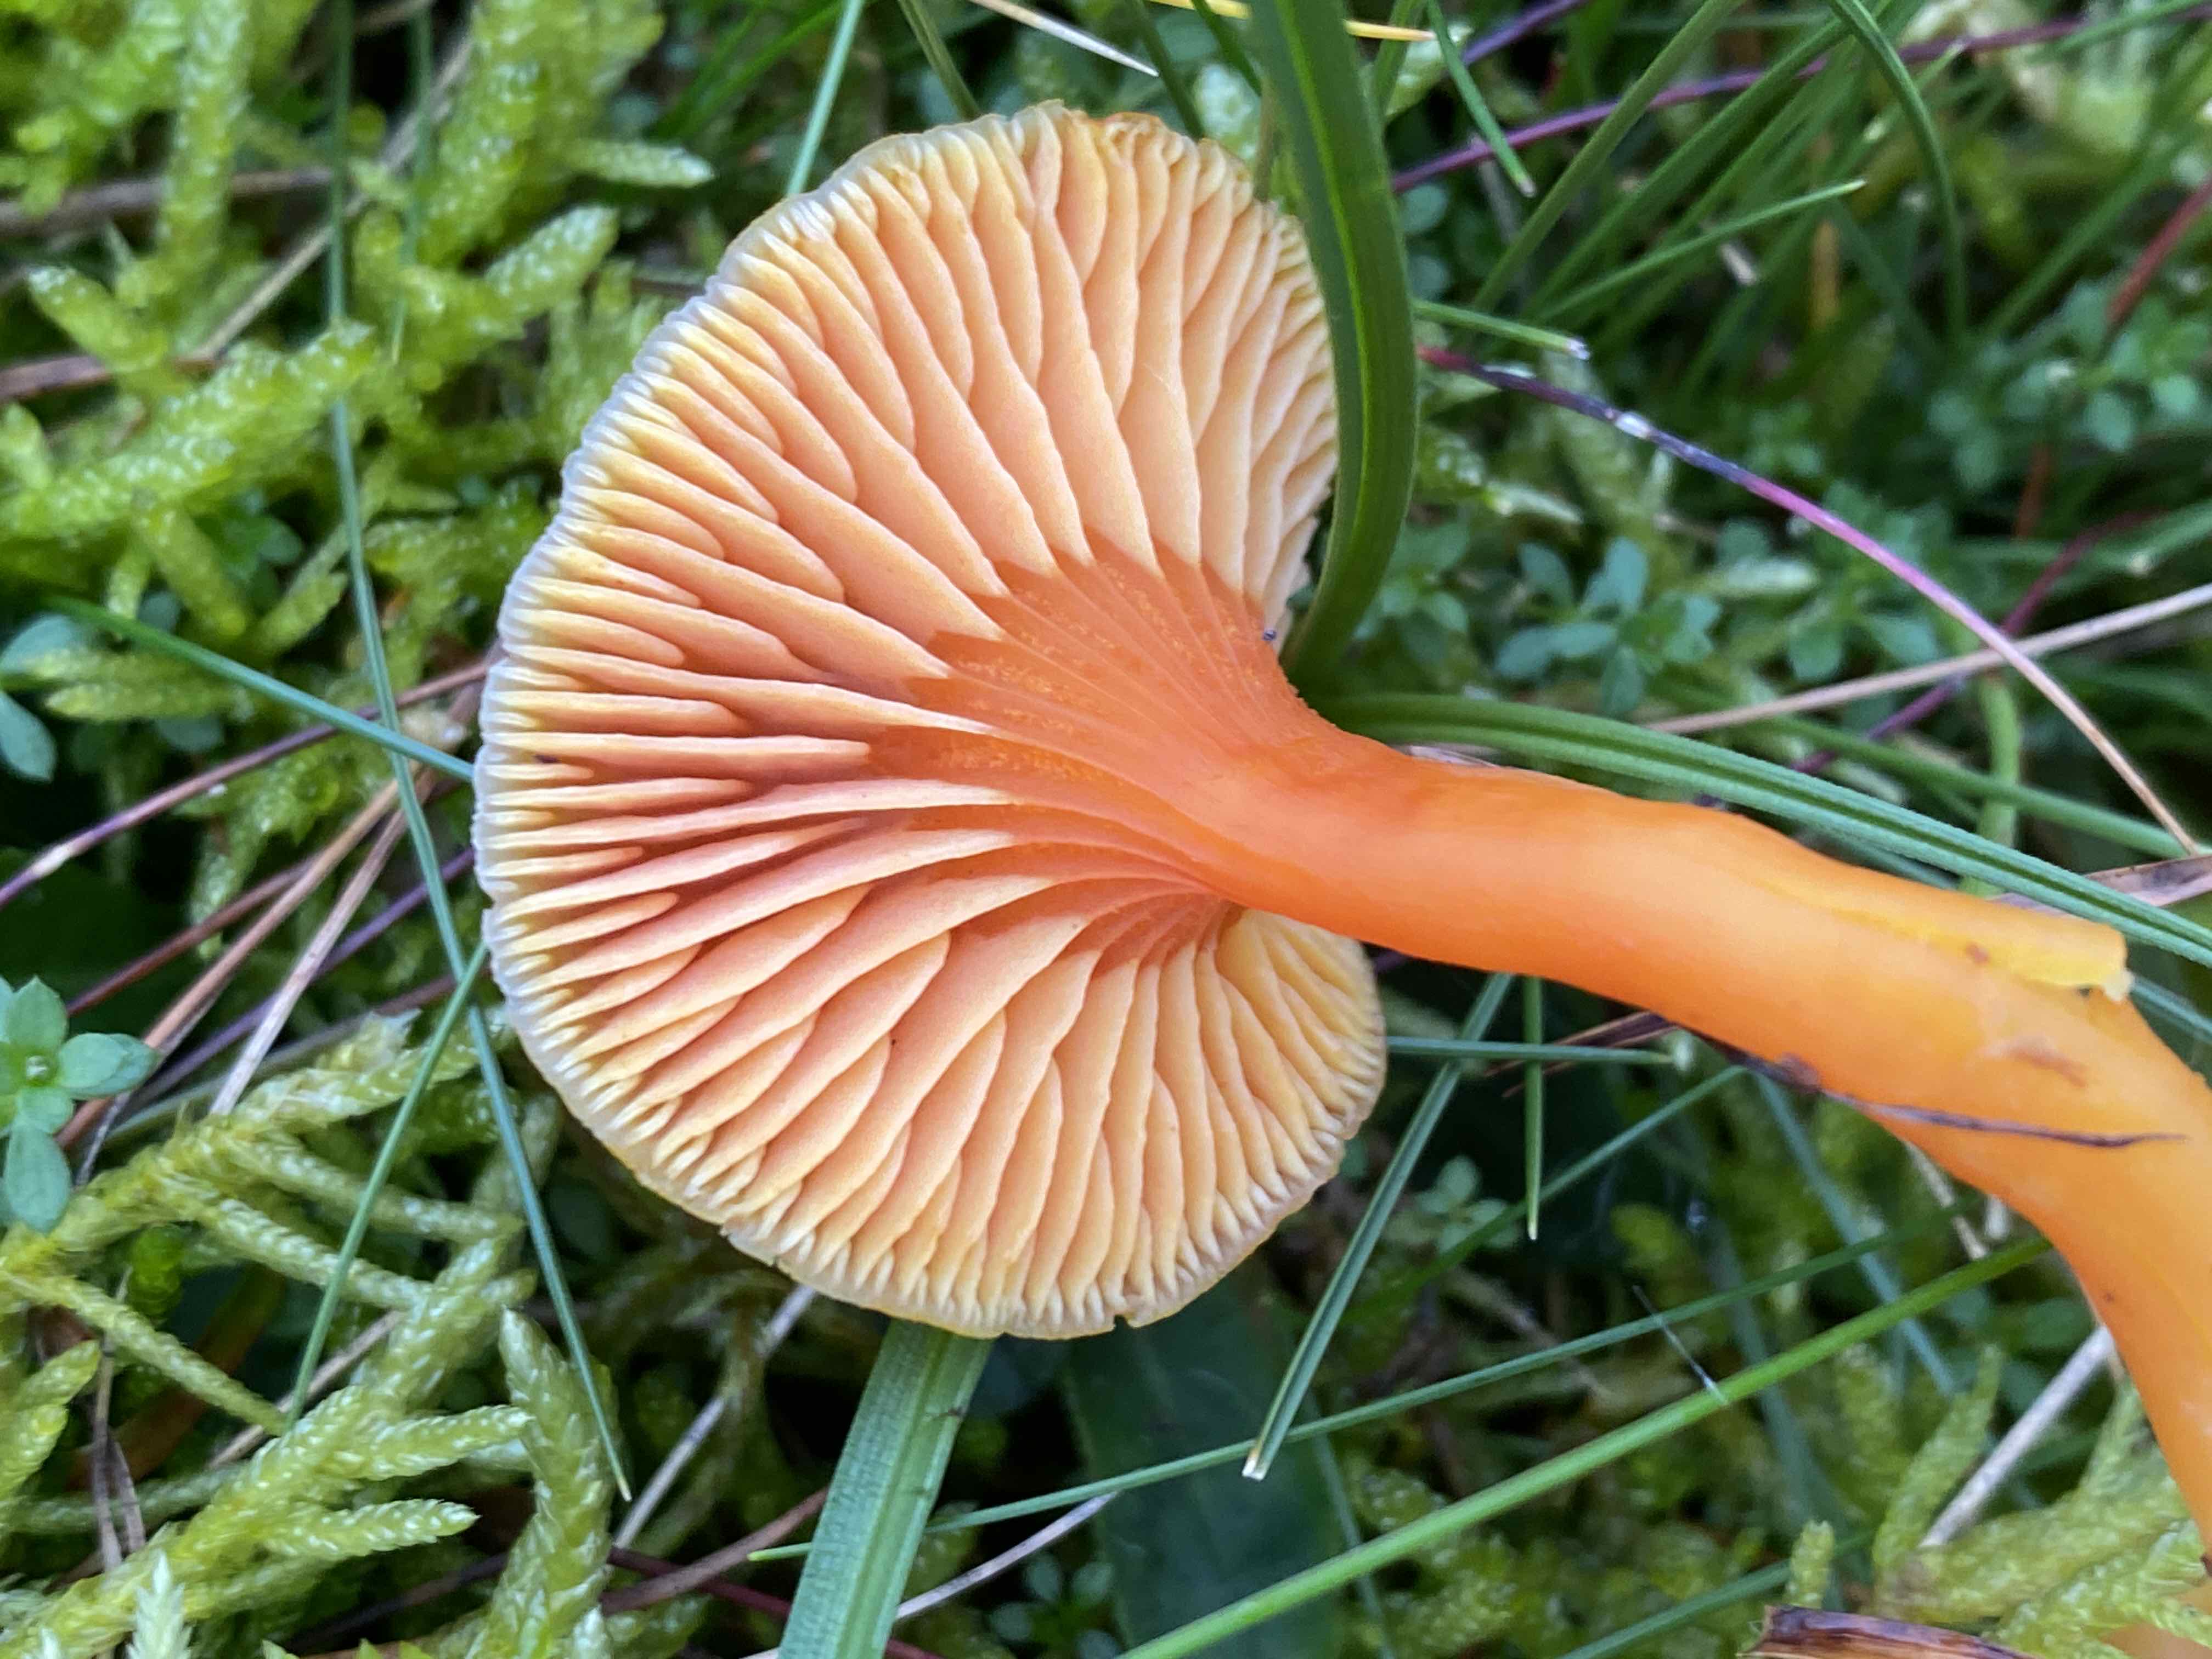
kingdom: Fungi
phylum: Basidiomycota
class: Agaricomycetes
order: Agaricales
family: Hygrophoraceae
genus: Hygrocybe
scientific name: Hygrocybe miniata
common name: mønje-vokshat
